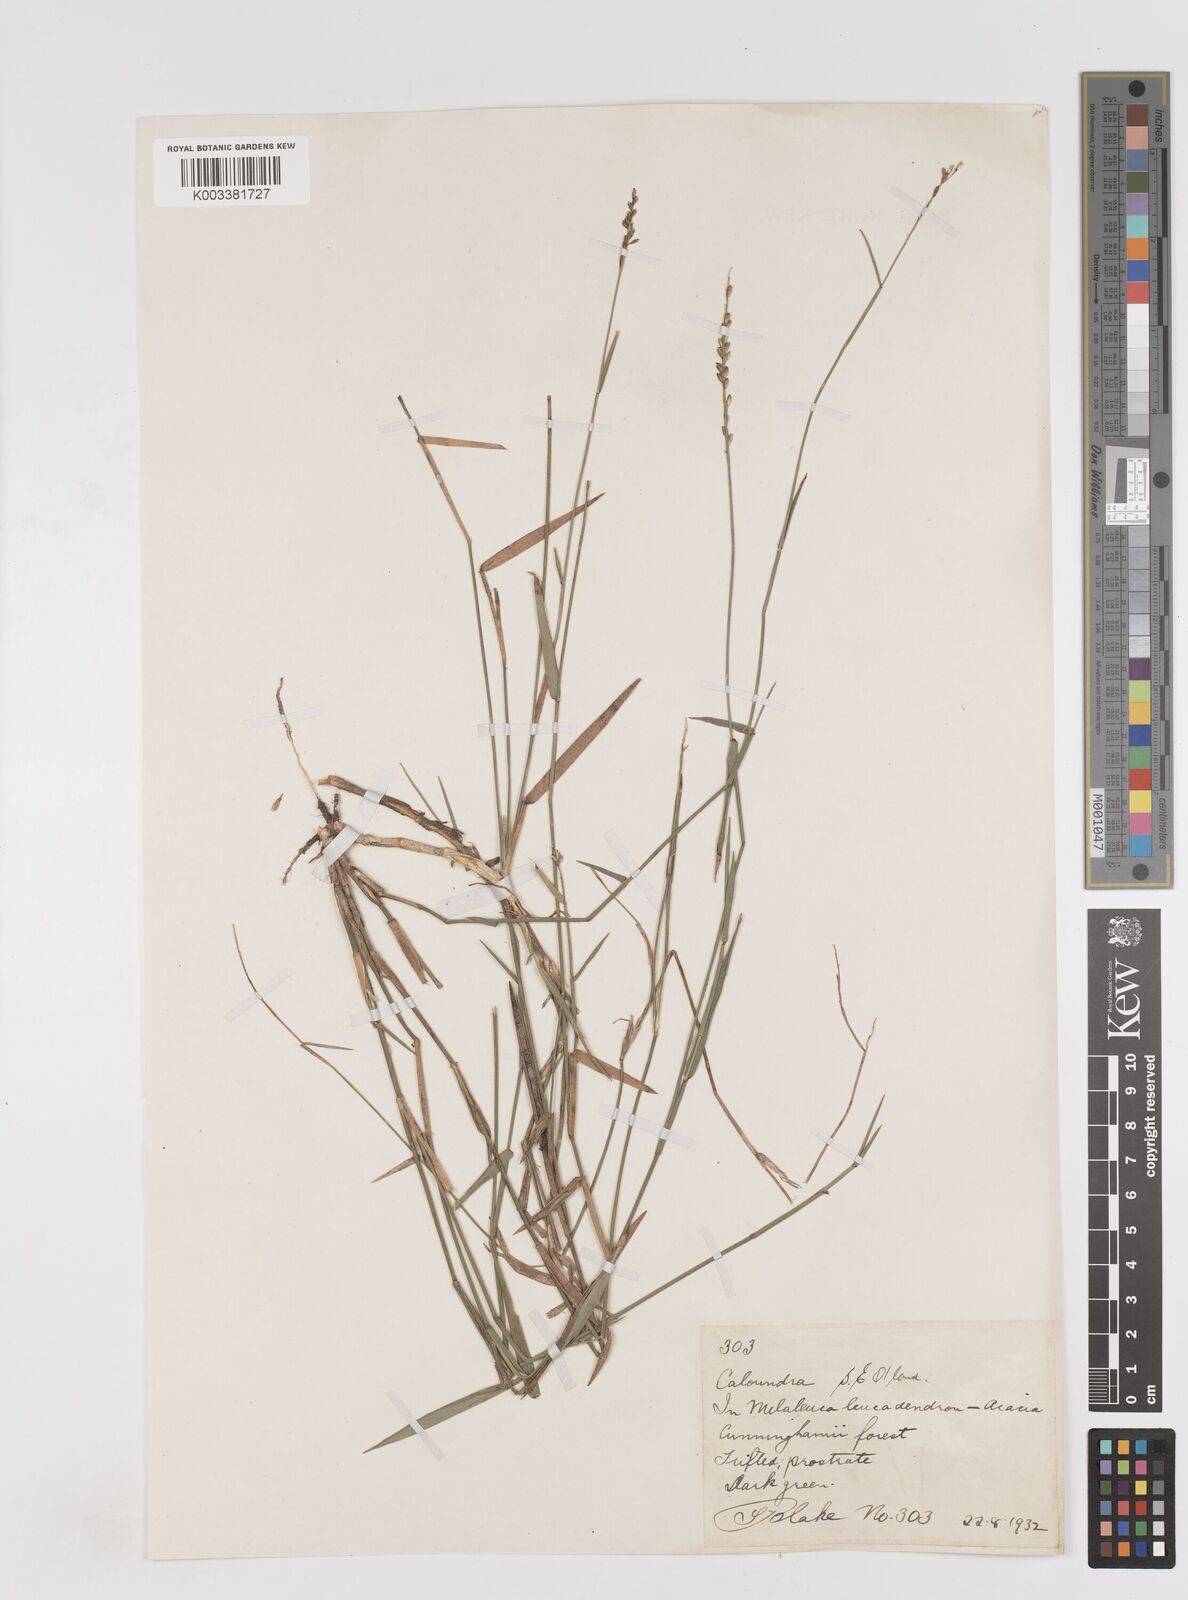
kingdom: Plantae
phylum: Tracheophyta
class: Liliopsida
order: Poales
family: Poaceae
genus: Entolasia
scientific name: Entolasia stricta
